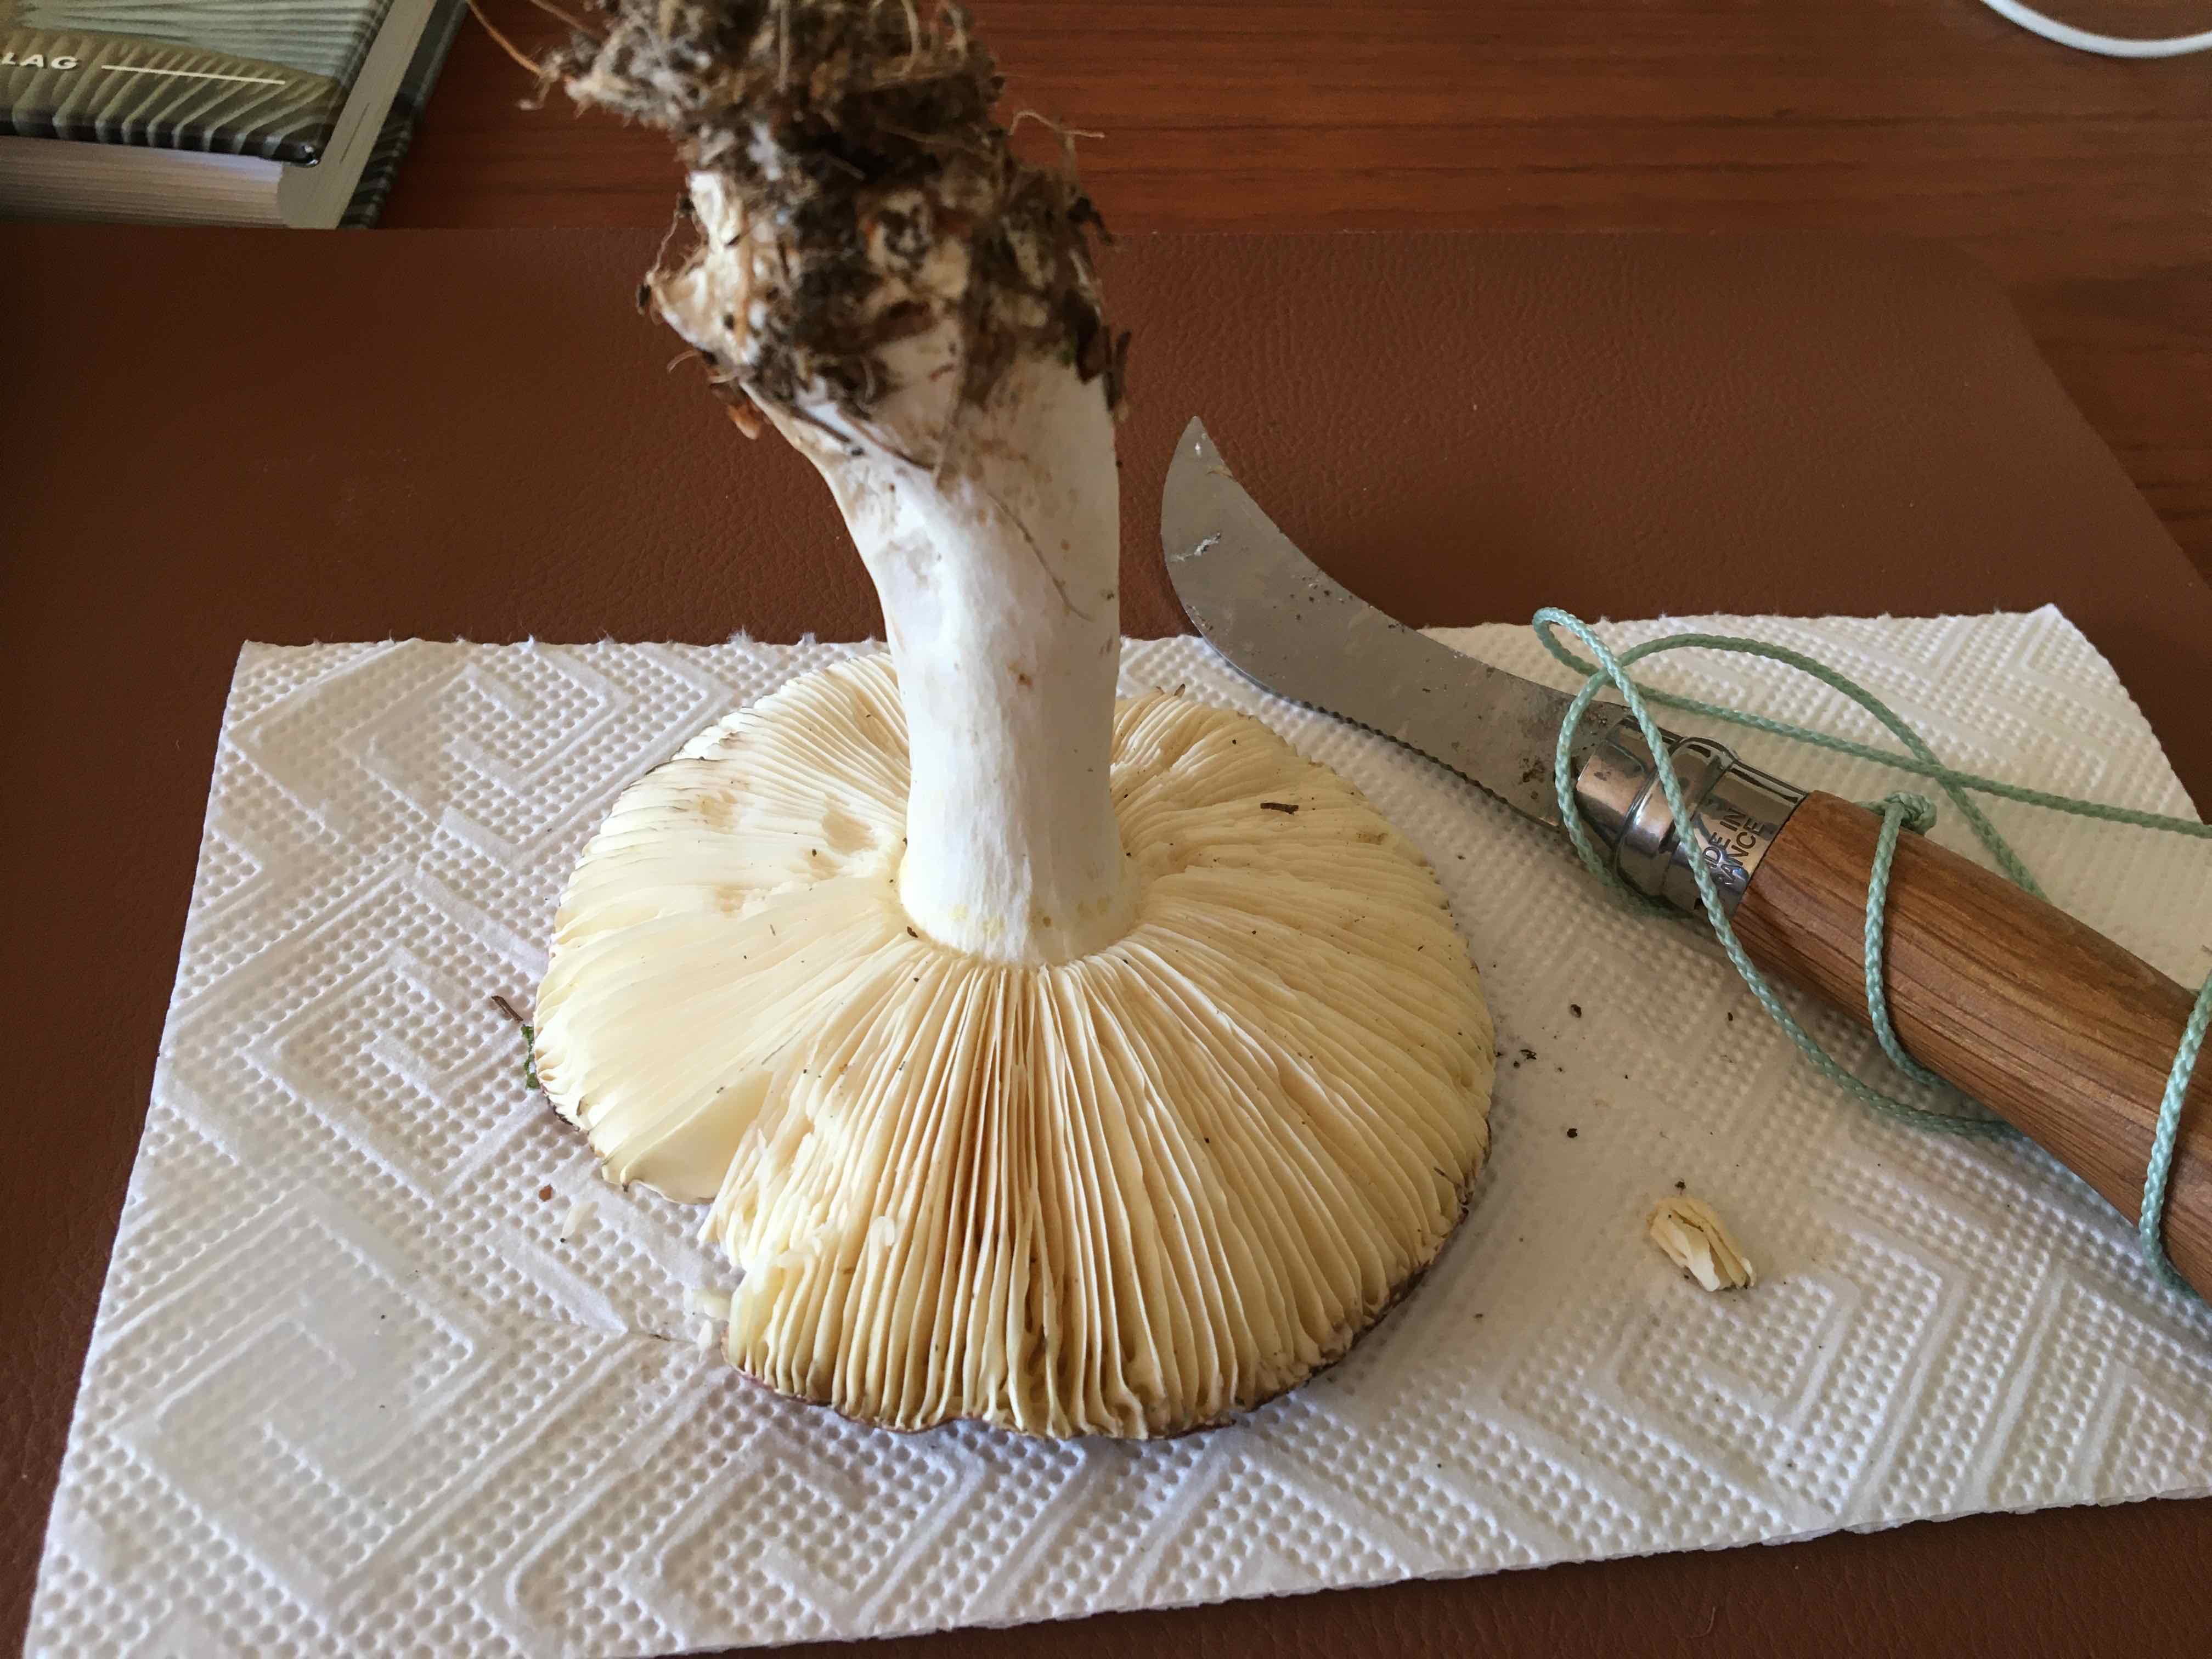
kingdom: Fungi
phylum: Basidiomycota
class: Agaricomycetes
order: Russulales
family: Russulaceae
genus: Russula
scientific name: Russula vinosa
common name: vinrød skørhat
